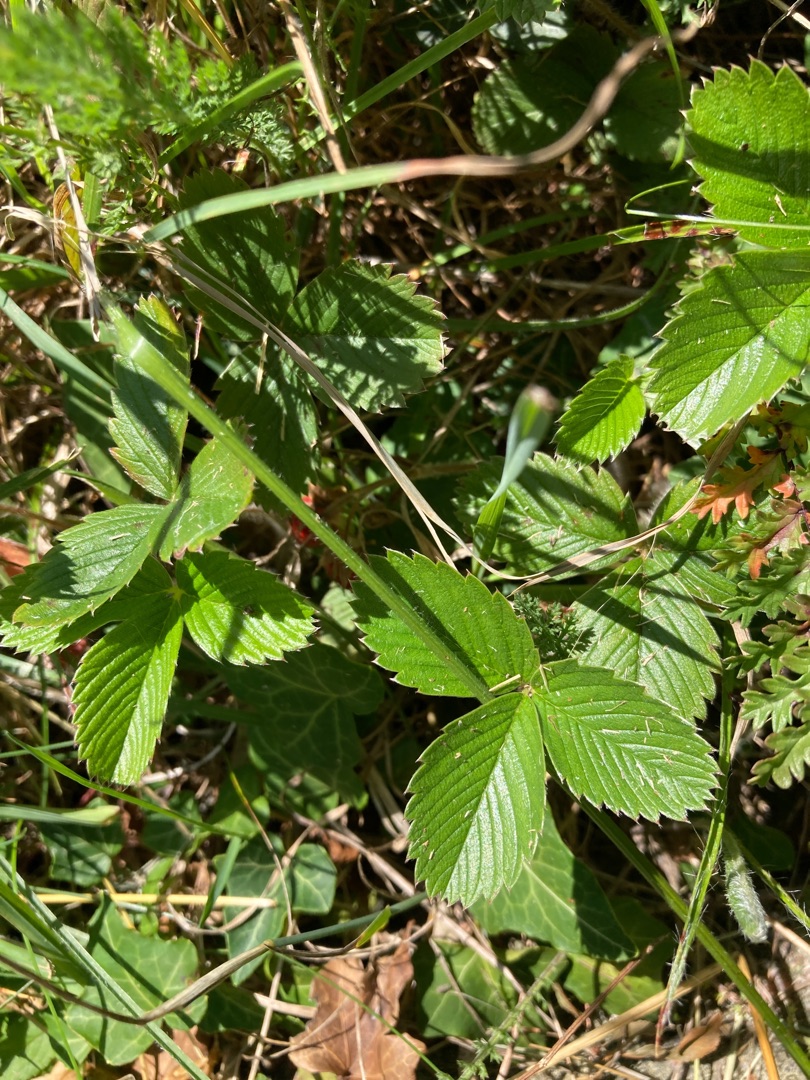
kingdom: Plantae
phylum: Tracheophyta
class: Magnoliopsida
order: Rosales
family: Rosaceae
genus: Fragaria
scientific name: Fragaria viridis
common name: Bakke-jordbær
